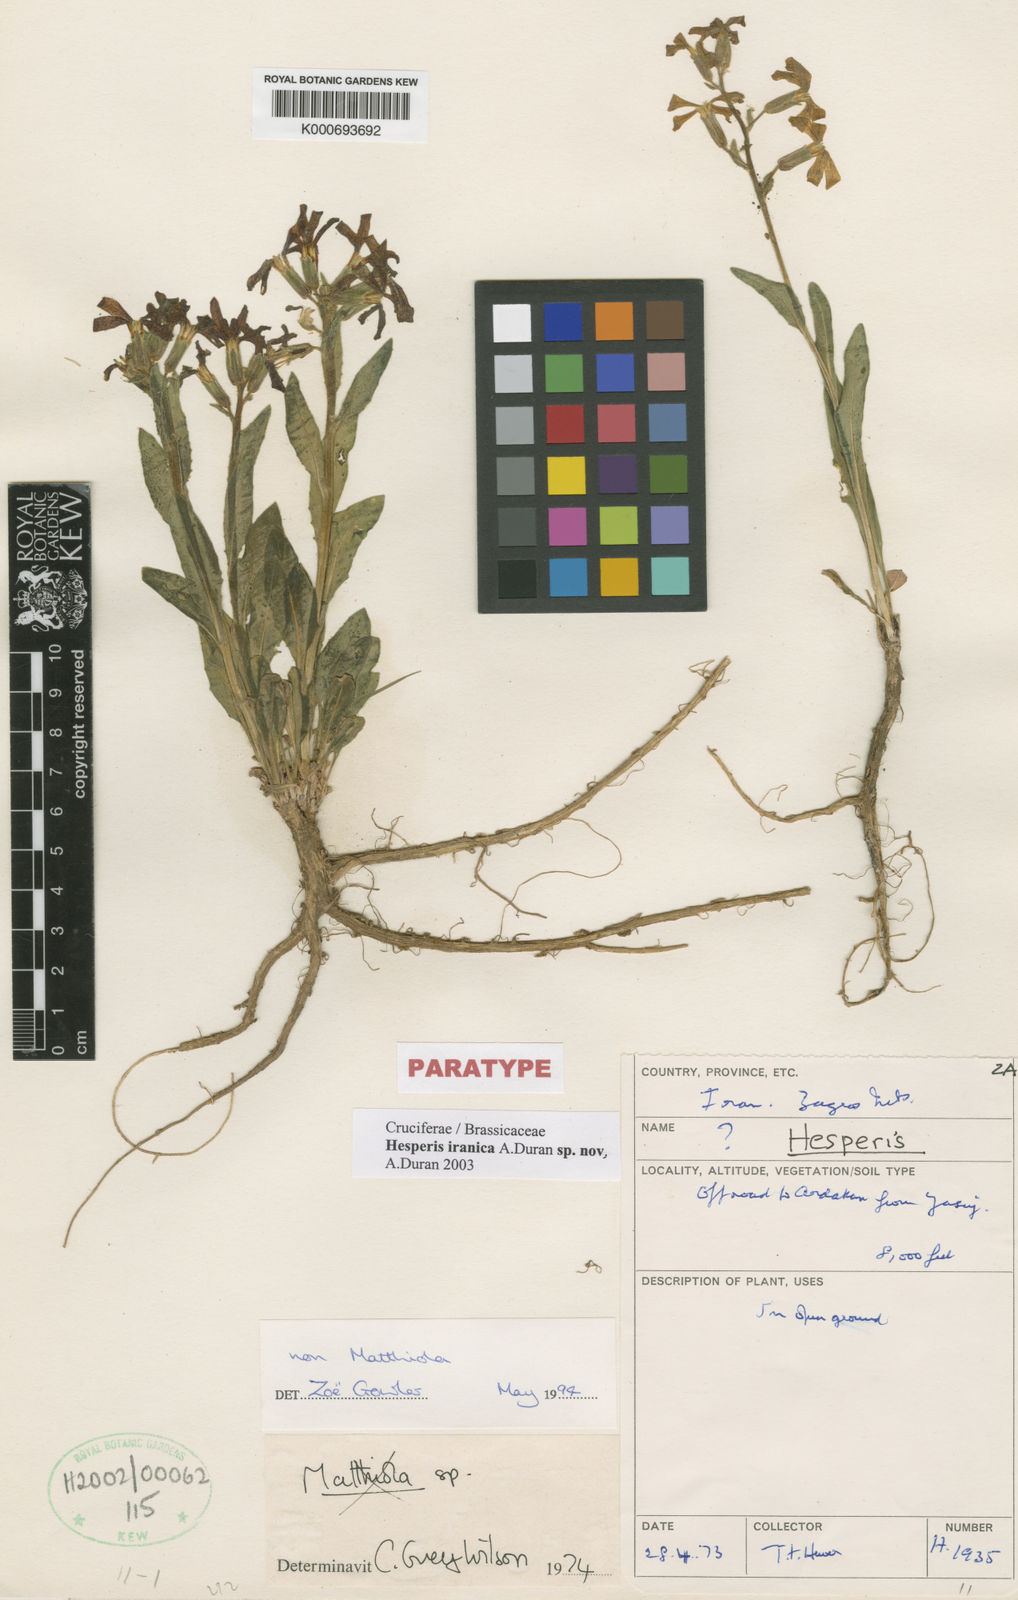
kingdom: Plantae
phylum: Tracheophyta
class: Magnoliopsida
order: Brassicales
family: Brassicaceae
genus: Hesperis
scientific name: Hesperis
